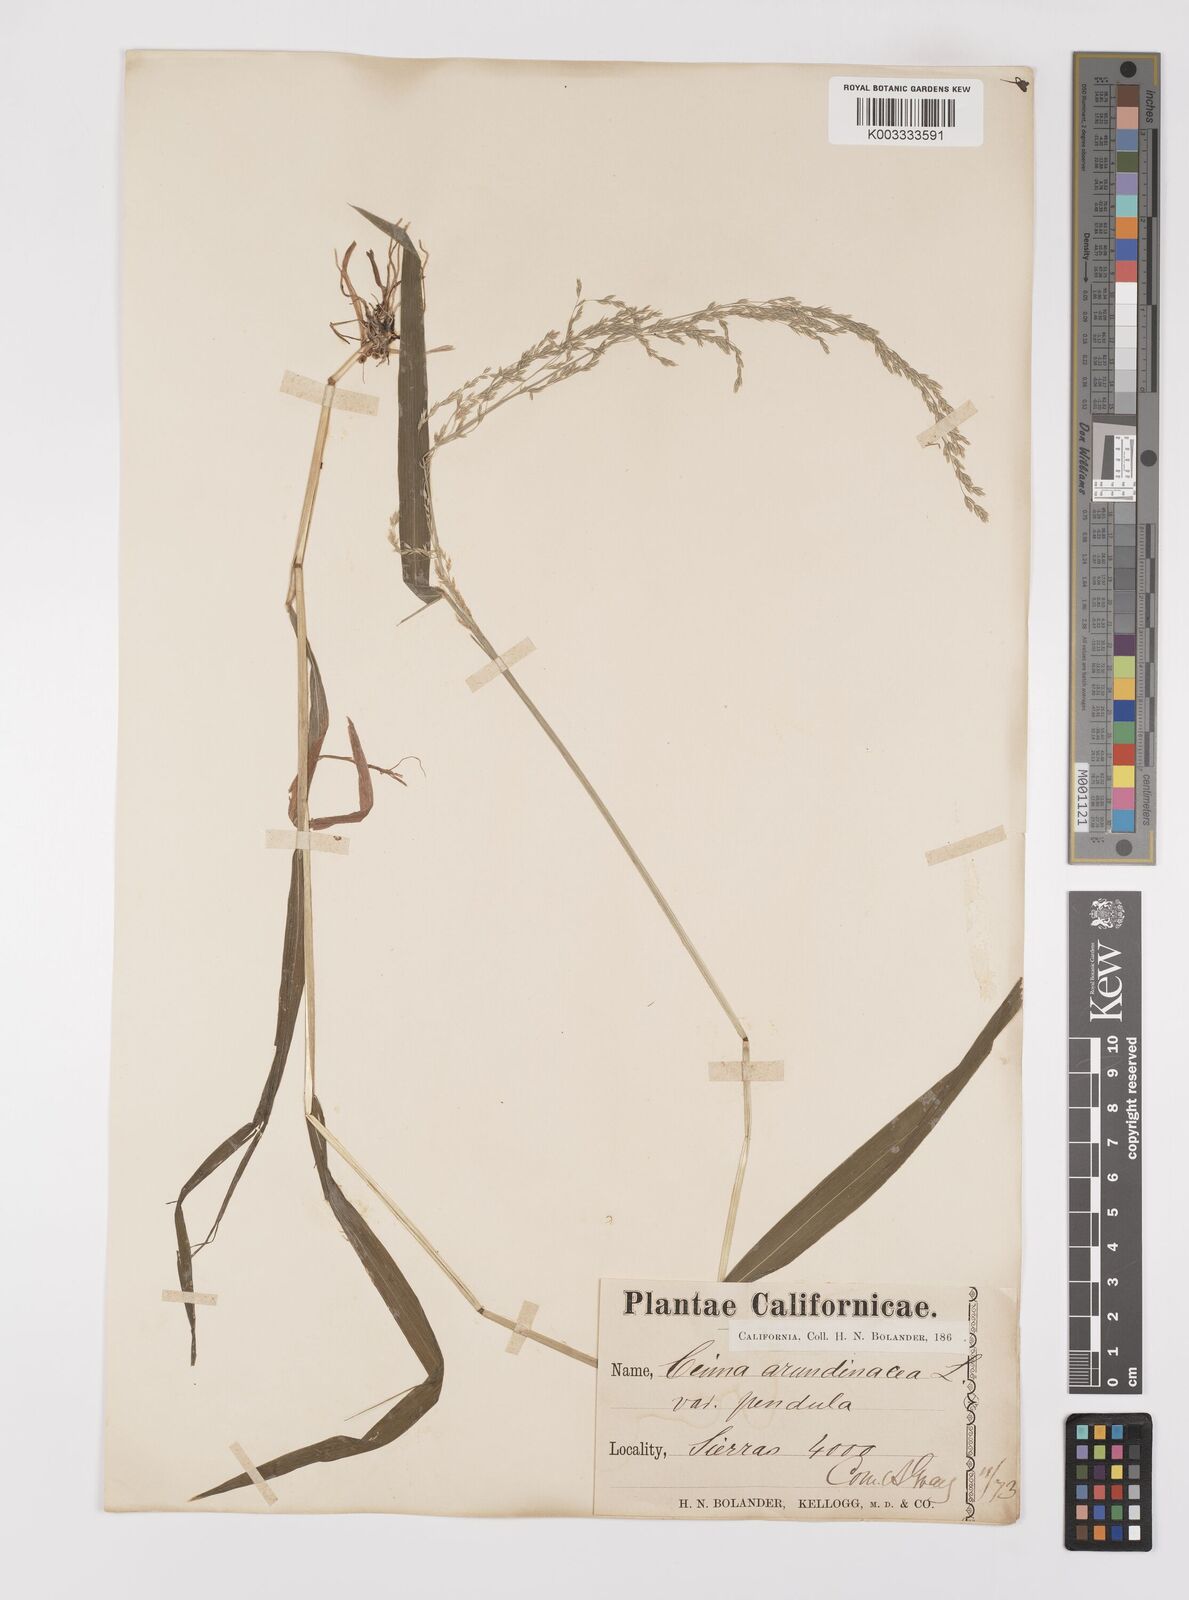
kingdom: Plantae
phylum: Tracheophyta
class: Liliopsida
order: Poales
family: Poaceae
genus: Cinna
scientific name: Cinna latifolia
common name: Drooping woodreed
